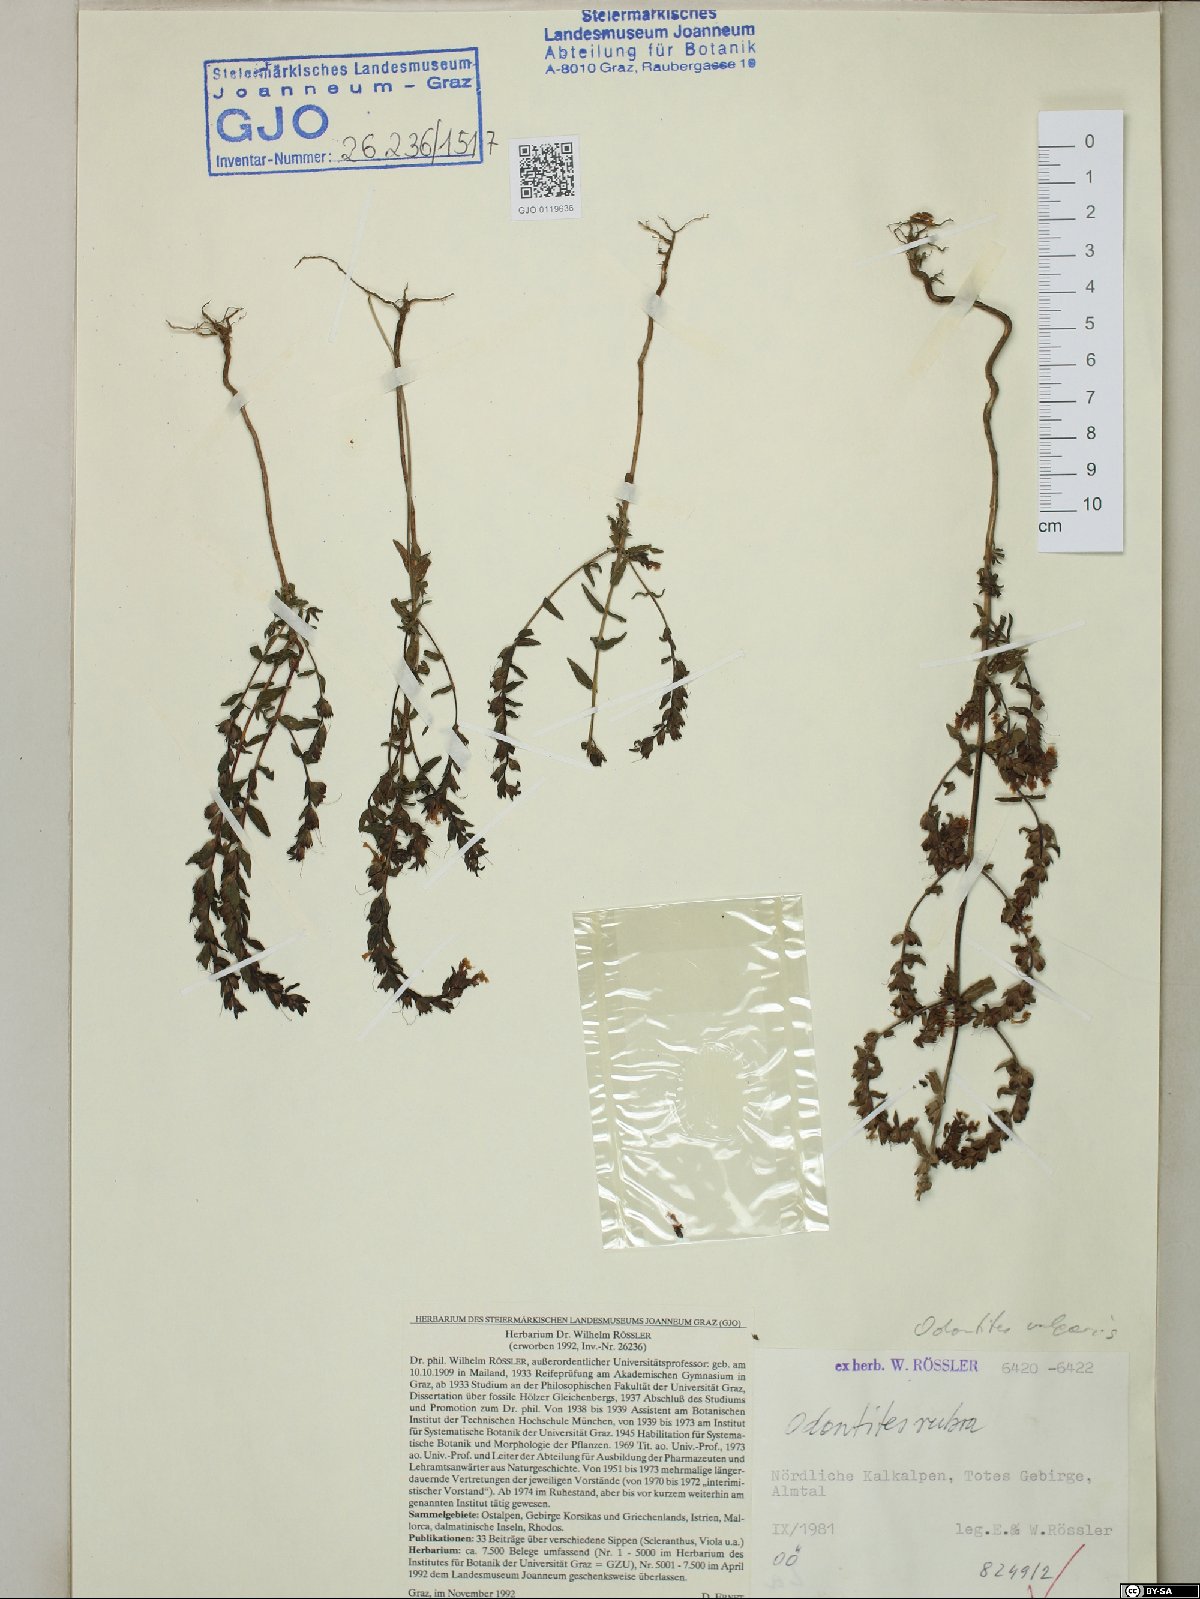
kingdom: Plantae
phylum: Tracheophyta
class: Magnoliopsida
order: Lamiales
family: Orobanchaceae
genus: Odontites
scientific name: Odontites vulgaris
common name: Broomrape
